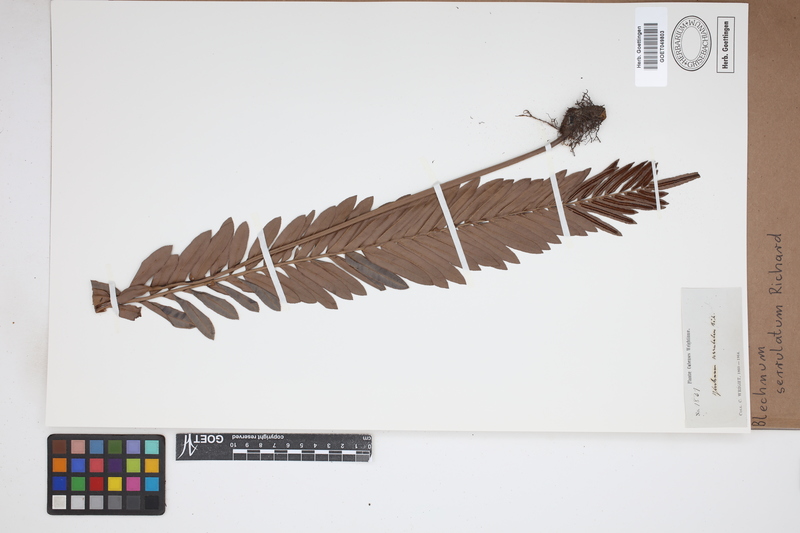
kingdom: Plantae
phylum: Tracheophyta
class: Polypodiopsida
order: Polypodiales
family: Blechnaceae
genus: Telmatoblechnum
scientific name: Telmatoblechnum serrulatum
